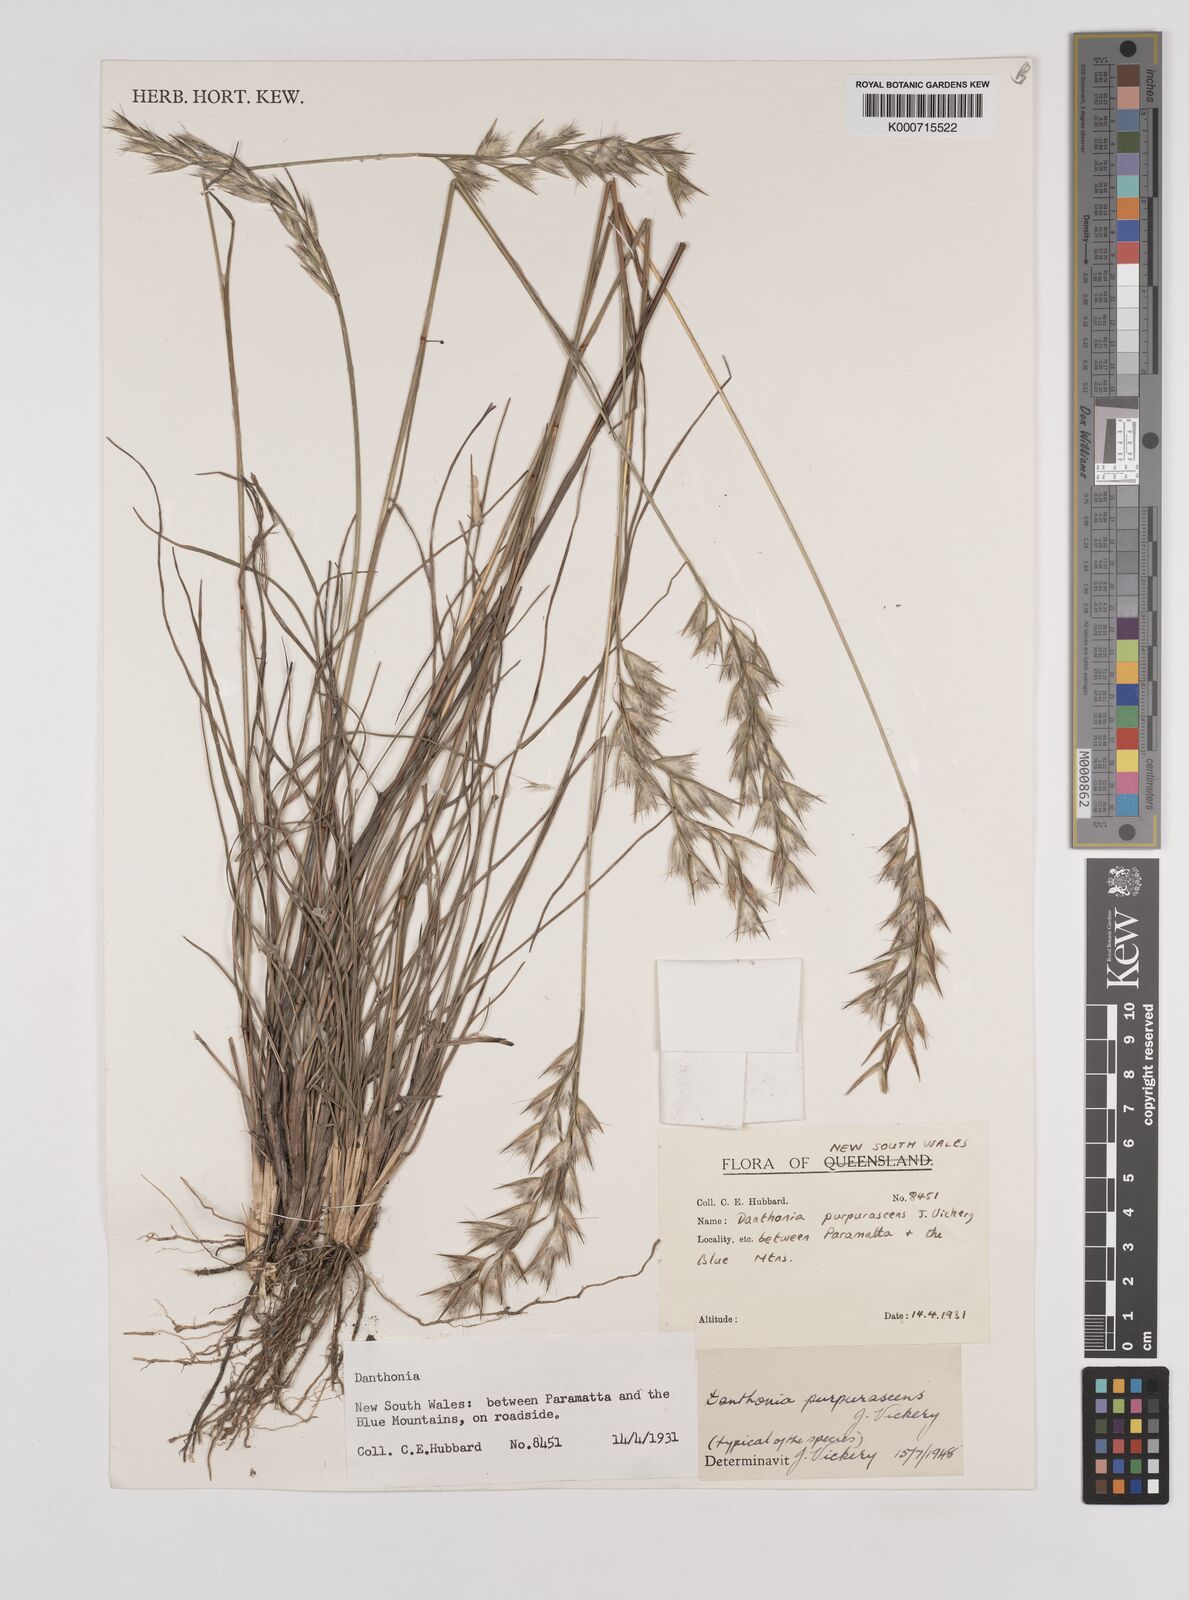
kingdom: Plantae
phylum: Tracheophyta
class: Liliopsida
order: Poales
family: Poaceae
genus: Rytidosperma
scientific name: Rytidosperma tenuius
